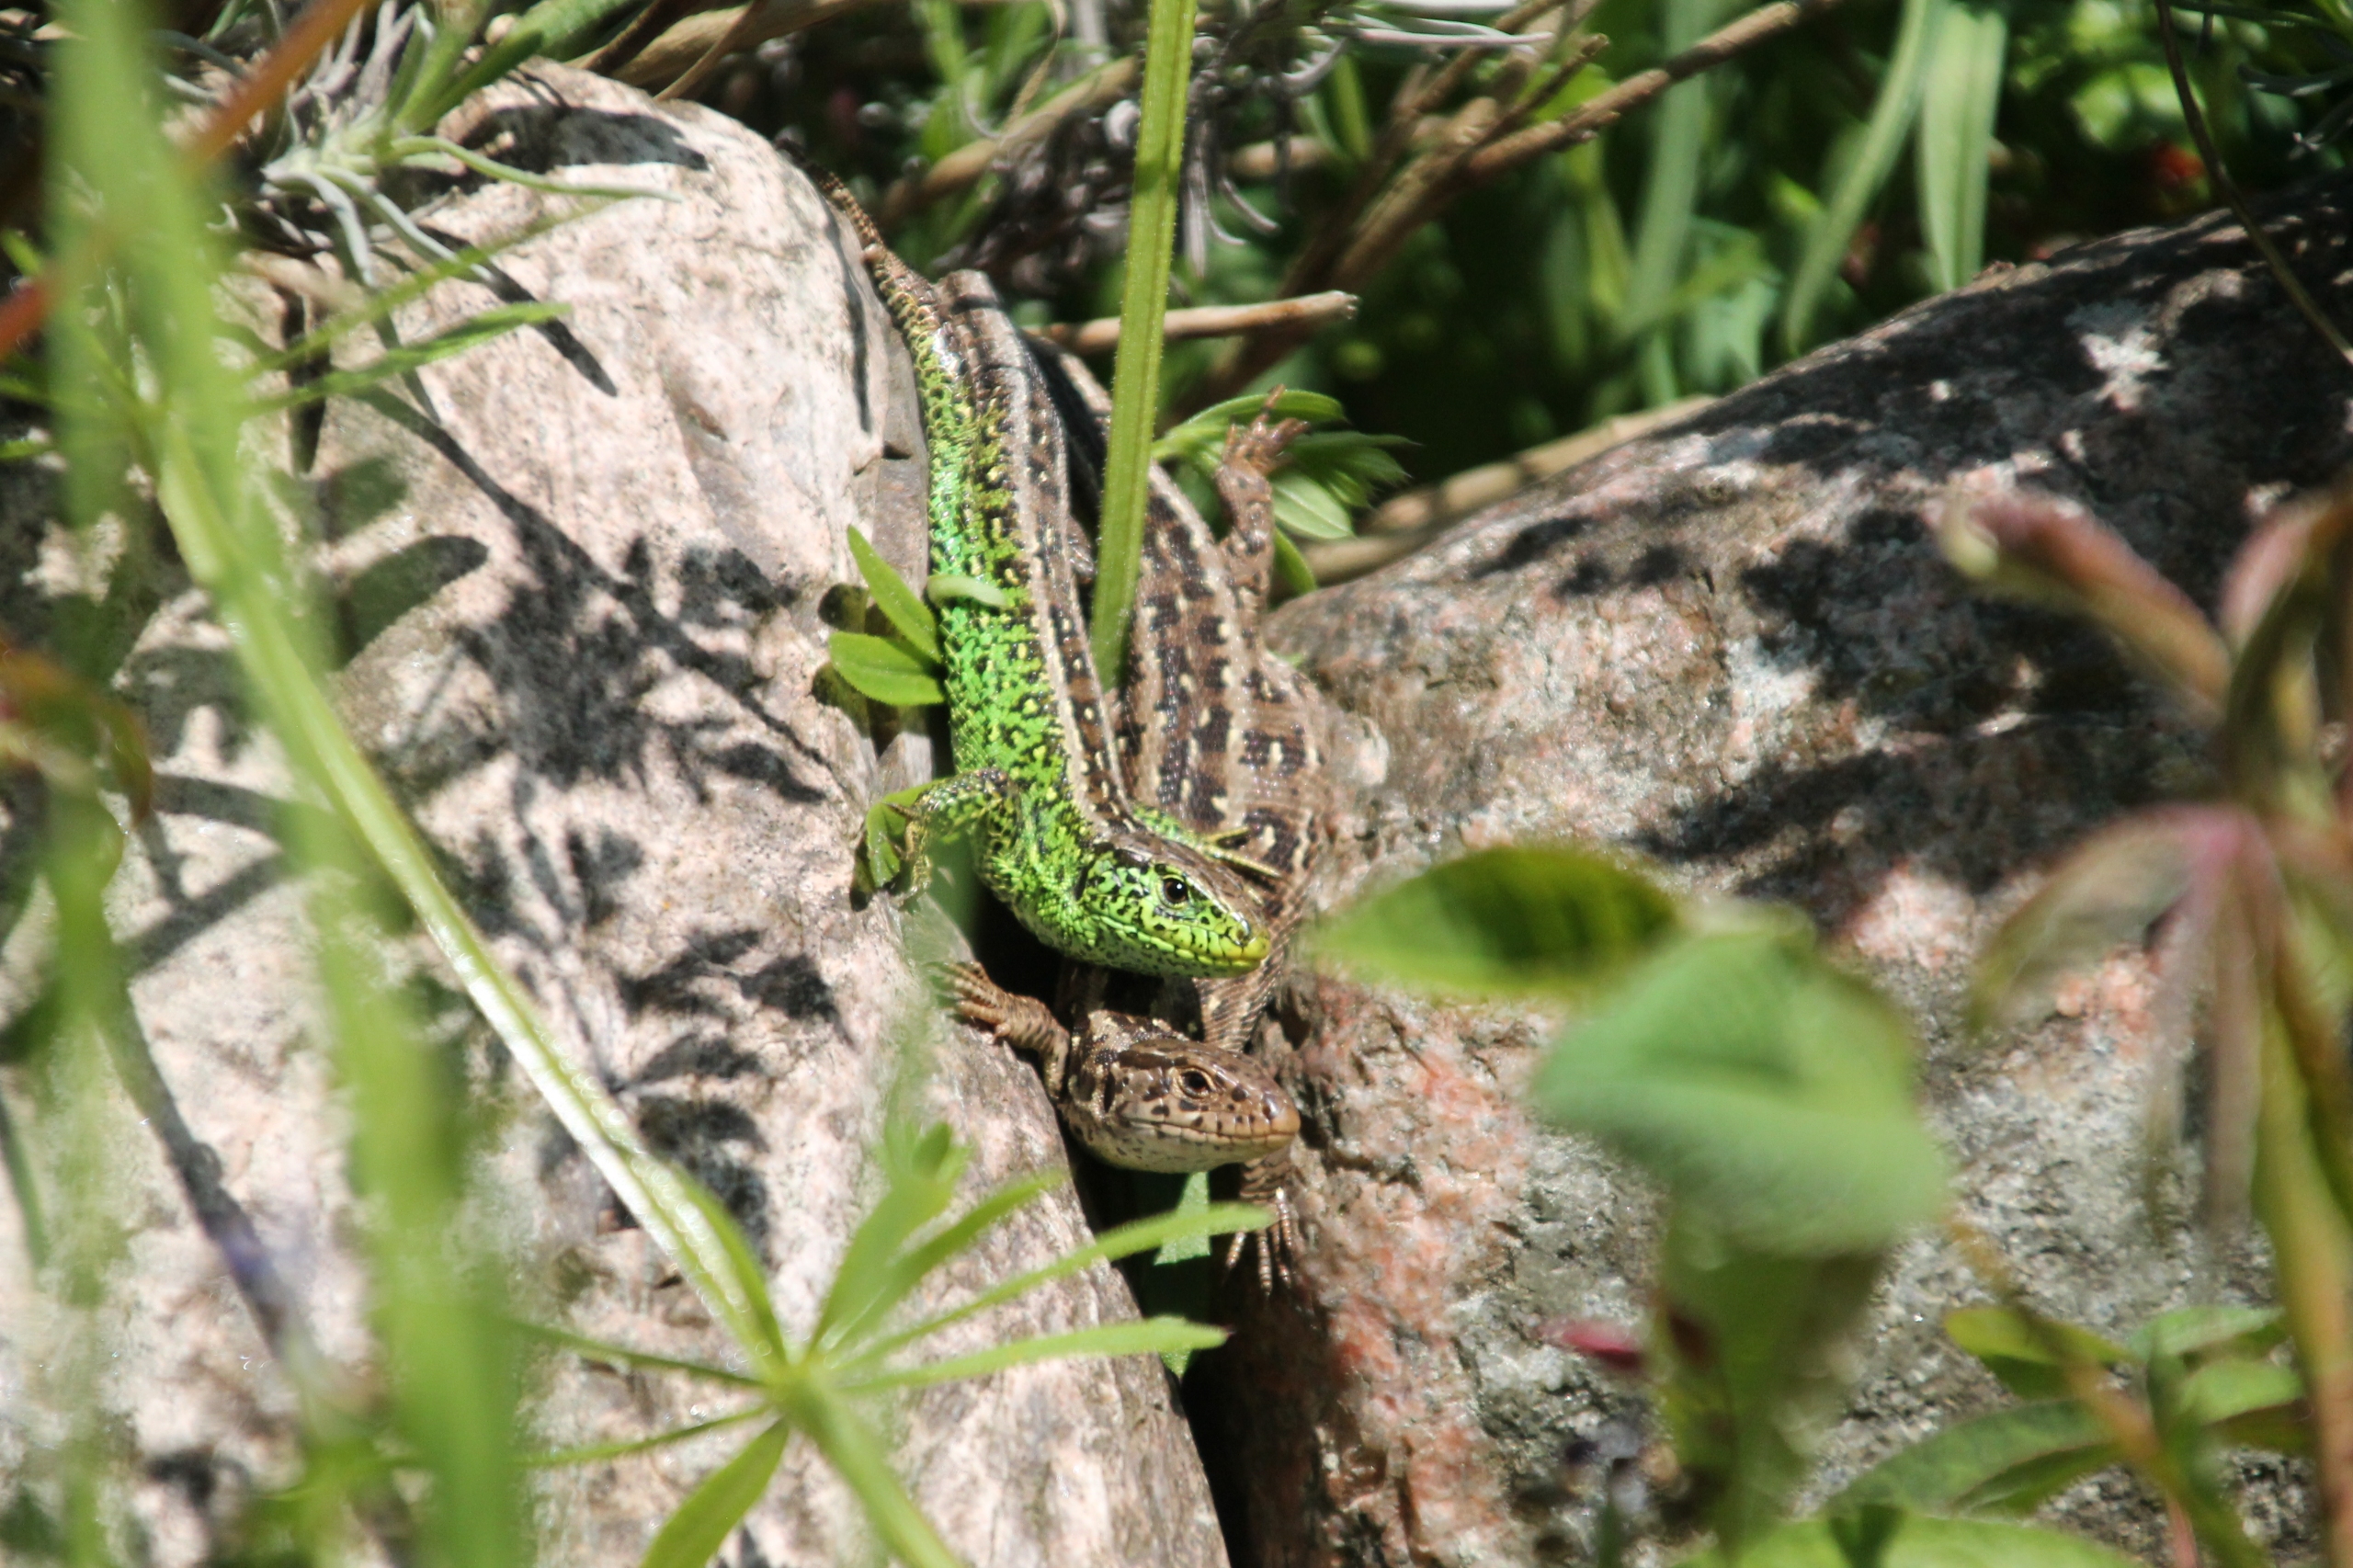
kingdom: Animalia
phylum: Chordata
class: Squamata
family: Lacertidae
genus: Lacerta
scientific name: Lacerta agilis
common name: Markfirben
